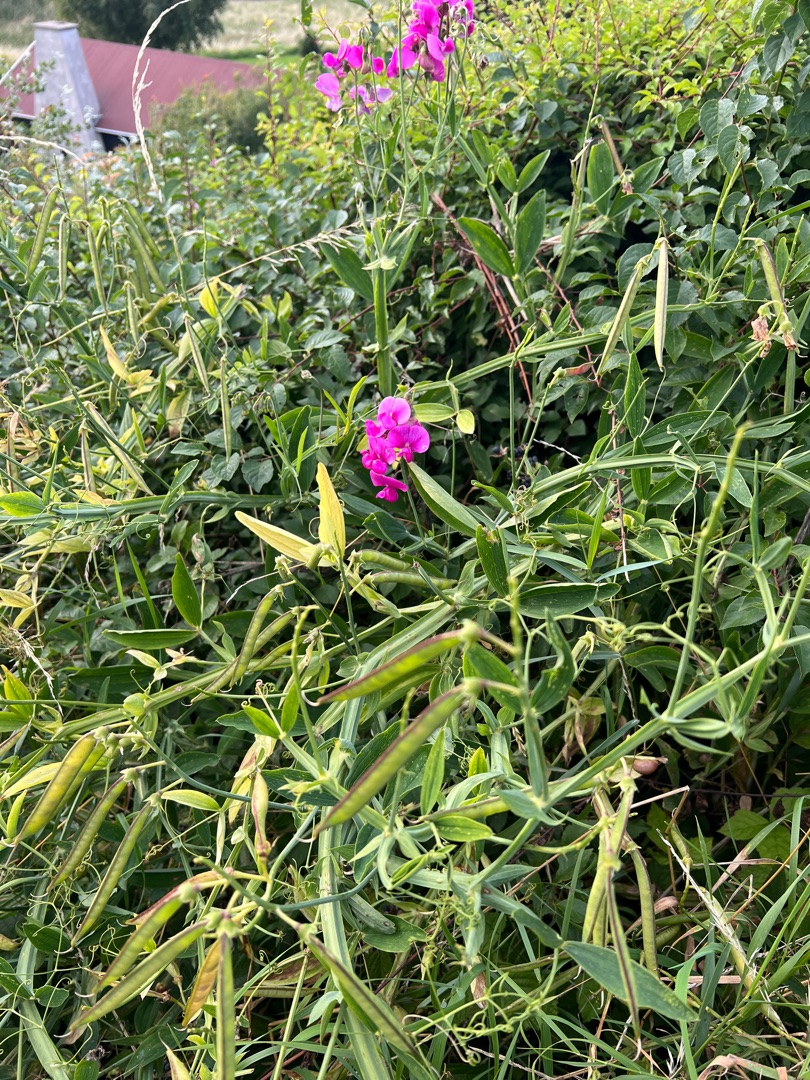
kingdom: Plantae
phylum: Tracheophyta
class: Magnoliopsida
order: Fabales
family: Fabaceae
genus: Lathyrus
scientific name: Lathyrus latifolius
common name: Flerårig ærteblomst
